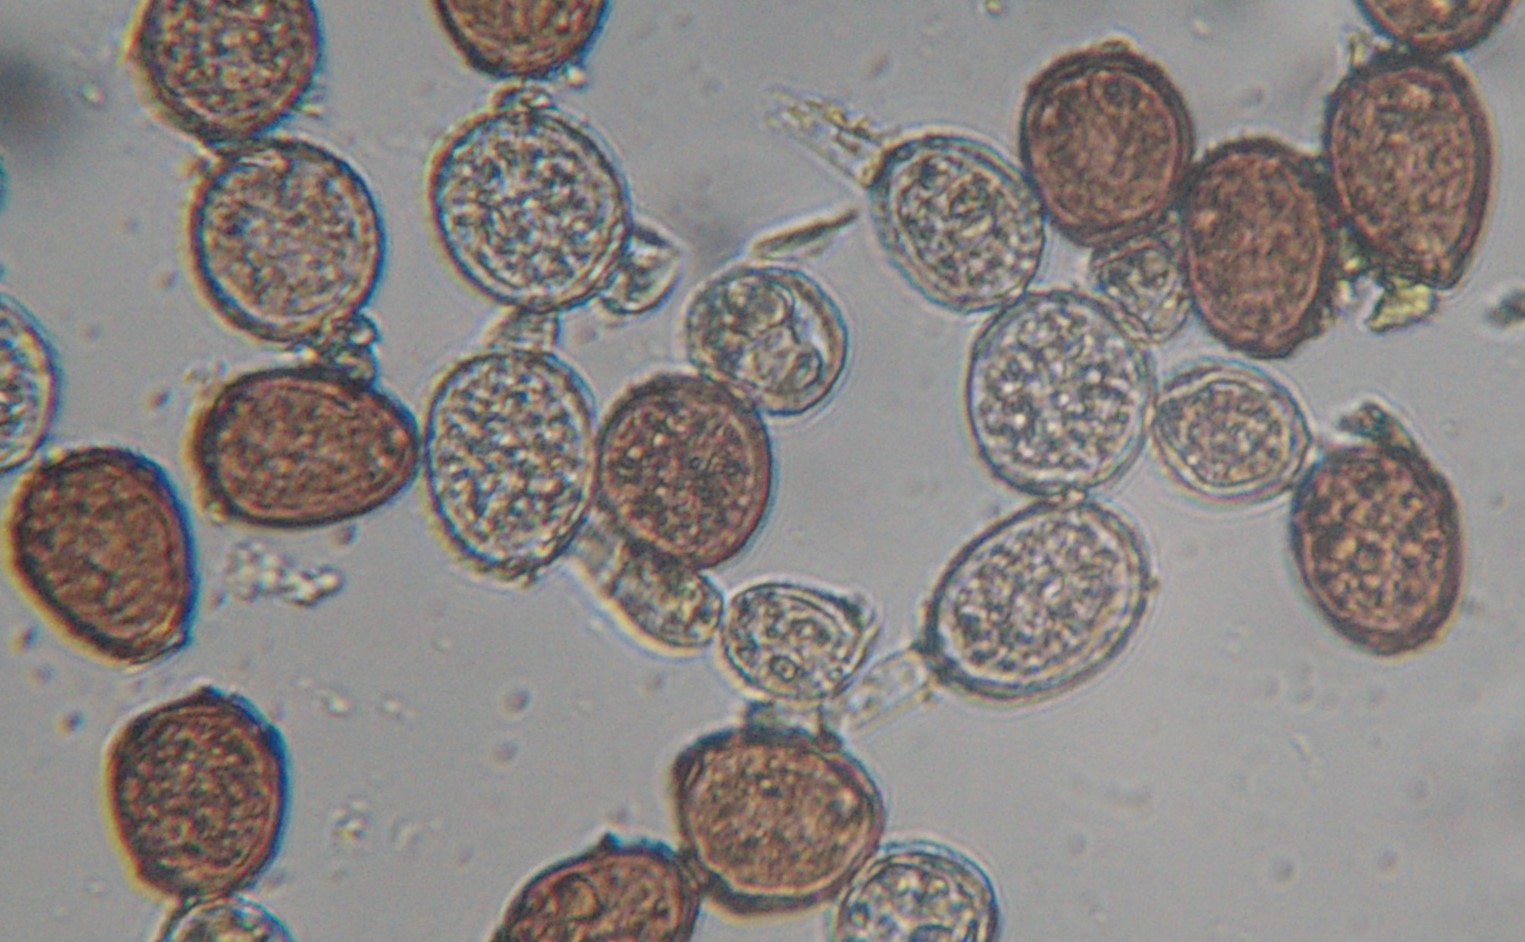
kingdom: Fungi
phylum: Basidiomycota
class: Pucciniomycetes
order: Pucciniales
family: Pucciniaceae
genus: Puccinia
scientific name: Puccinia acetosae
